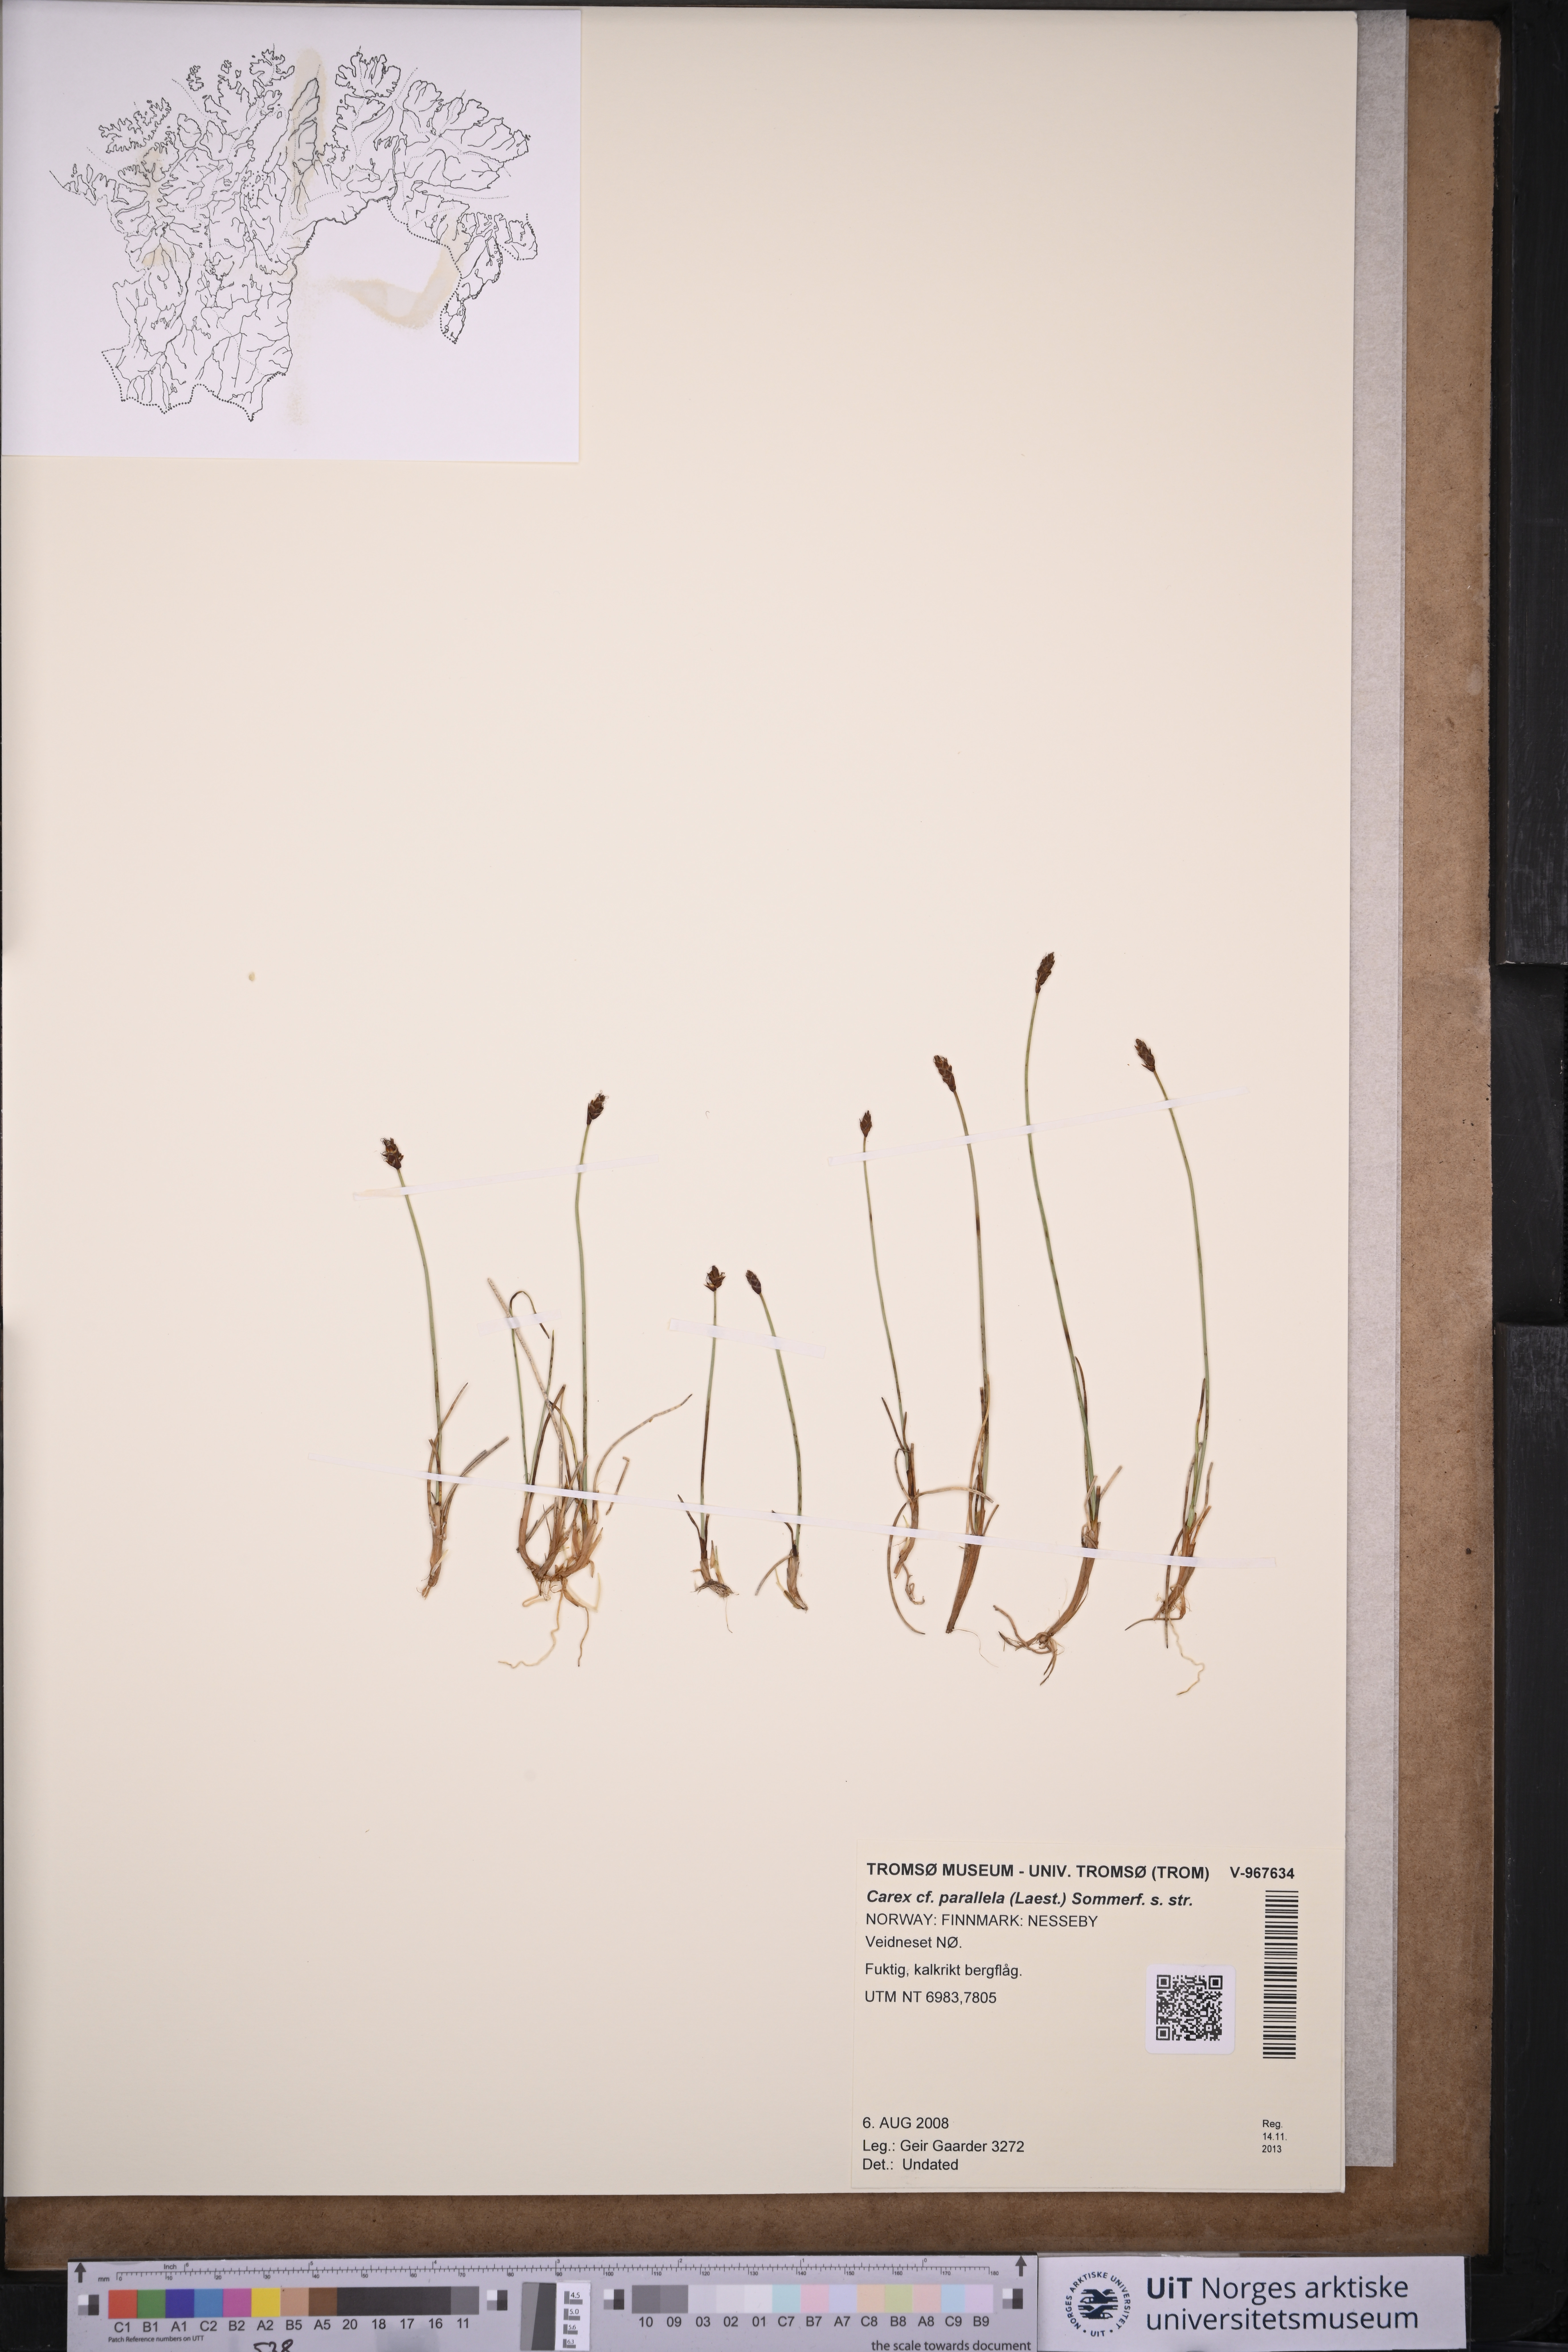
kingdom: Plantae
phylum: Tracheophyta
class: Liliopsida
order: Poales
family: Cyperaceae
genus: Carex
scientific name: Carex parallela
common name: Parallel sedge
